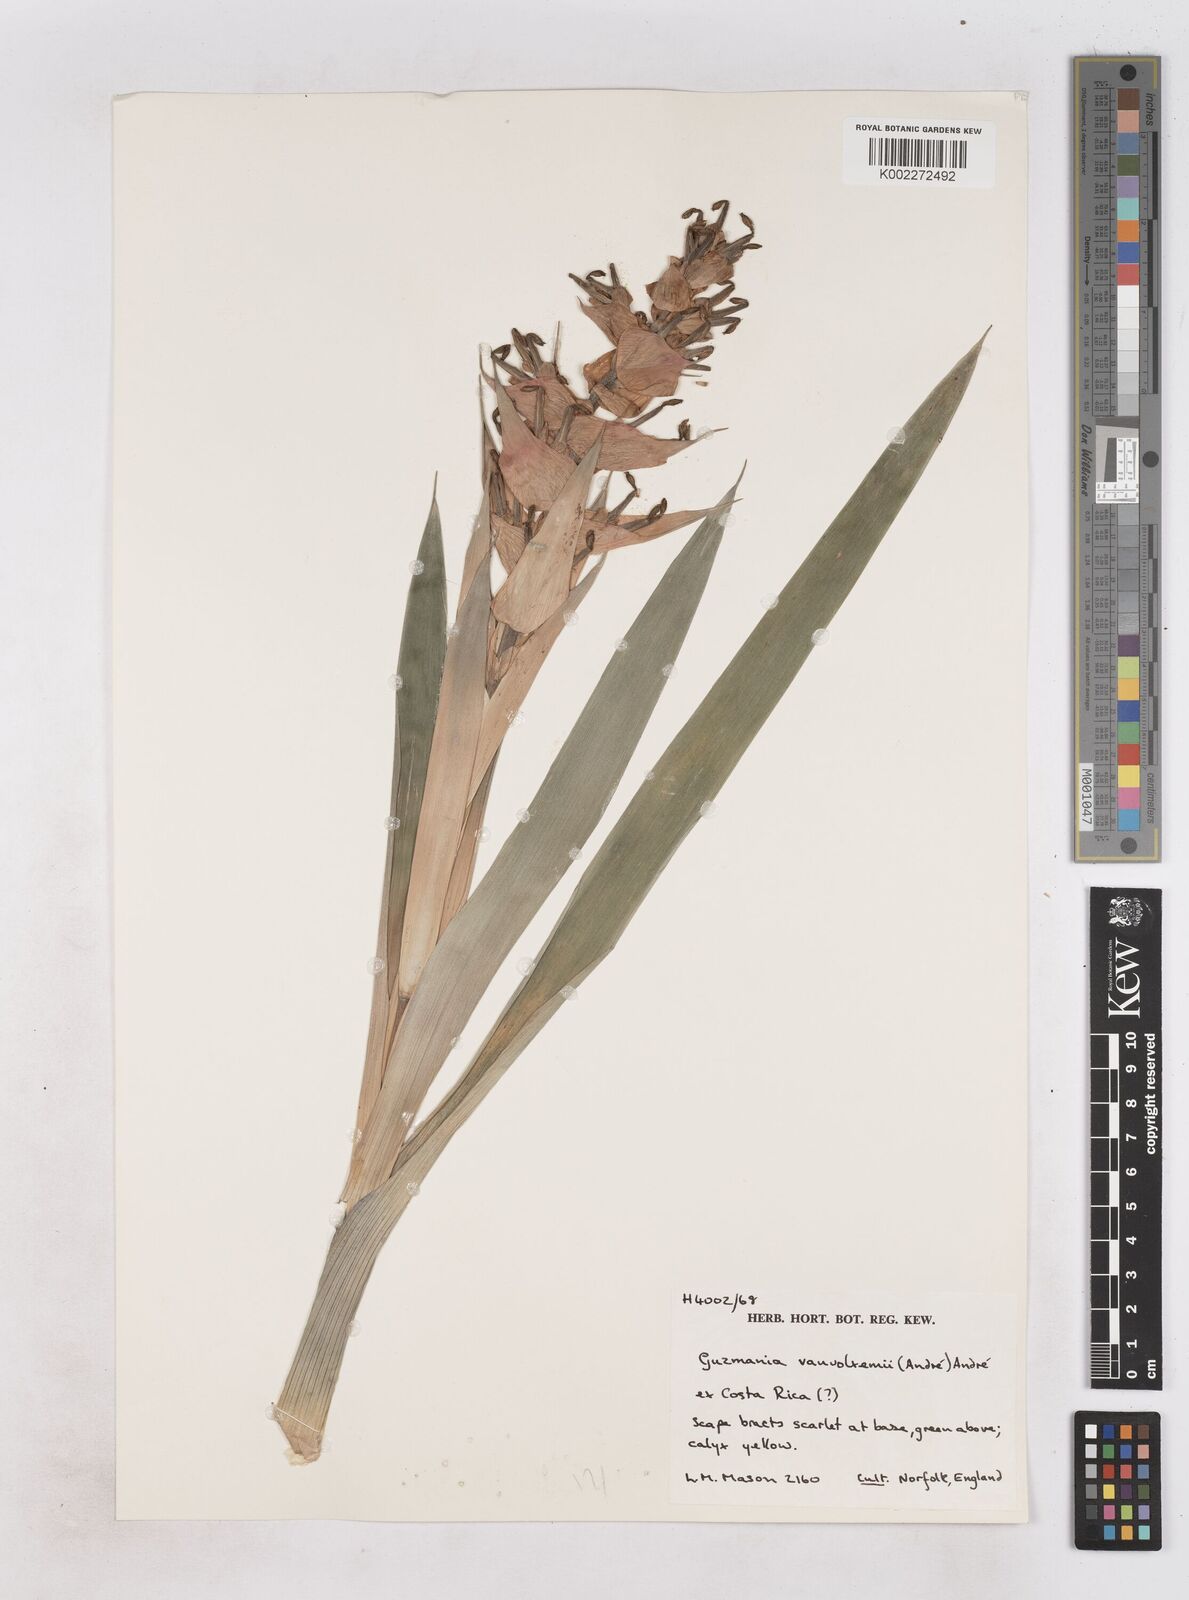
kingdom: Plantae
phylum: Tracheophyta
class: Liliopsida
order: Poales
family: Bromeliaceae
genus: Guzmania
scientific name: Guzmania vanvolxemii
